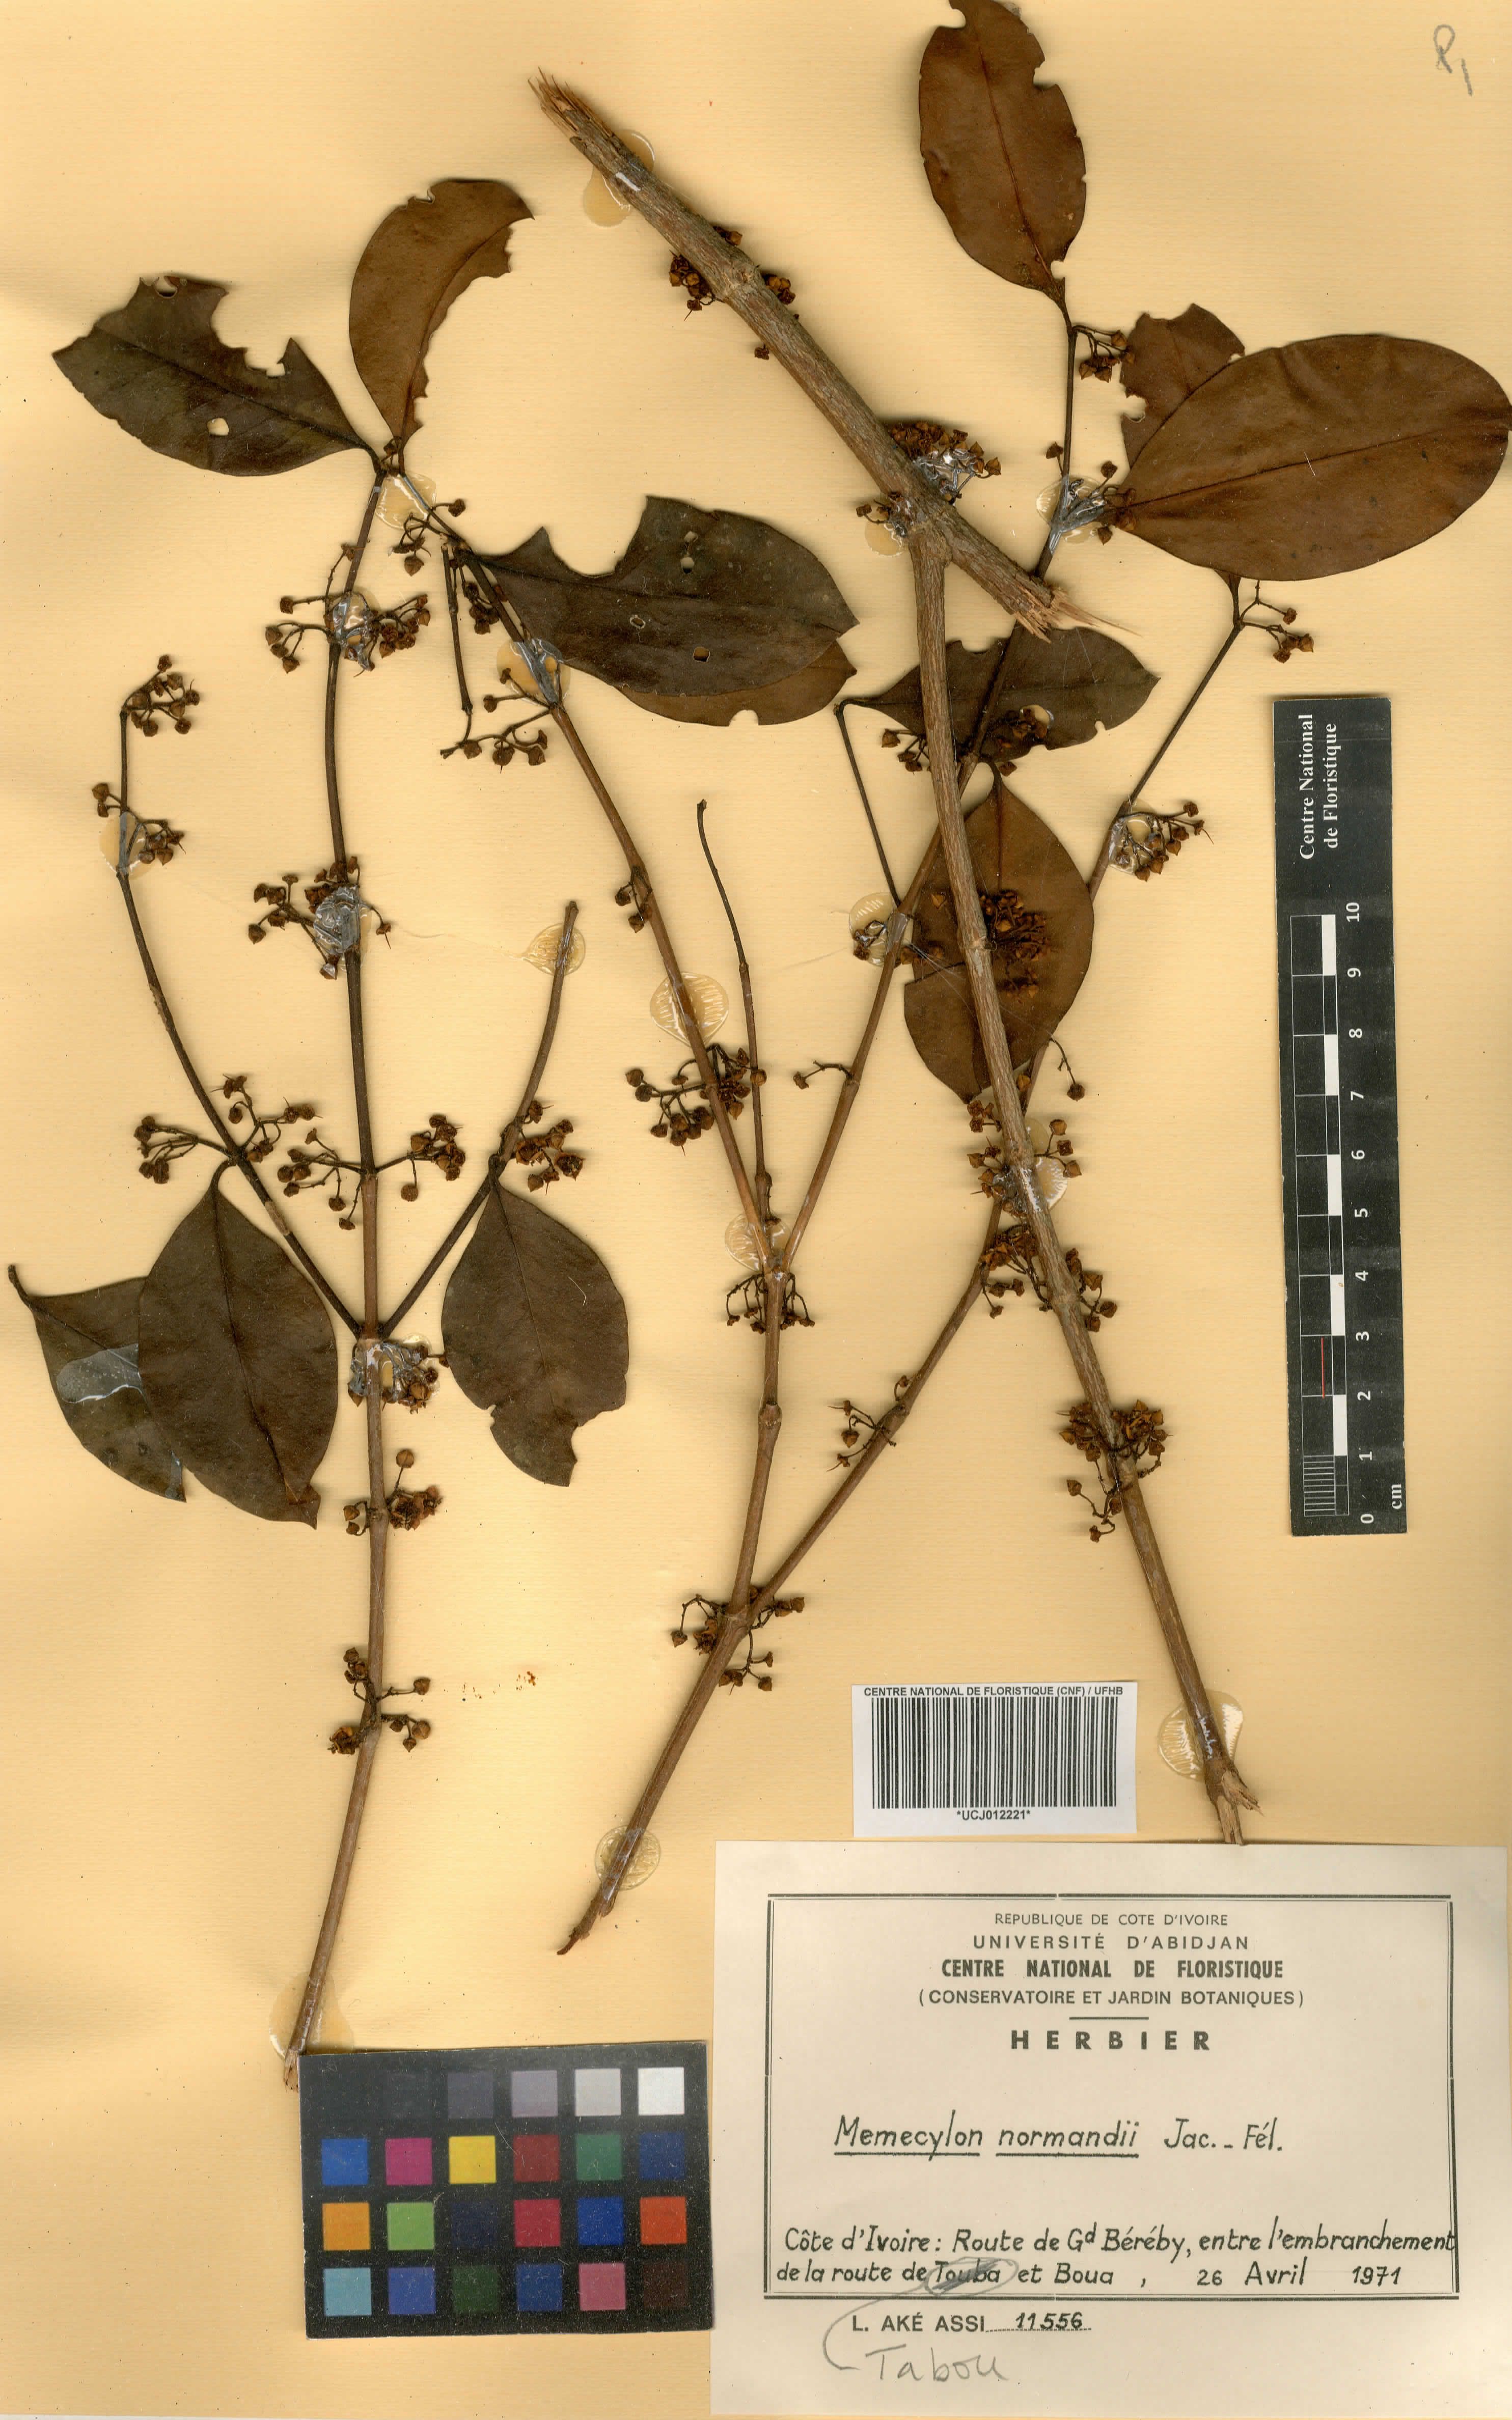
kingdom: Plantae
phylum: Tracheophyta
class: Magnoliopsida
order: Myrtales
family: Melastomataceae
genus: Memecylon
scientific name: Memecylon normandii
